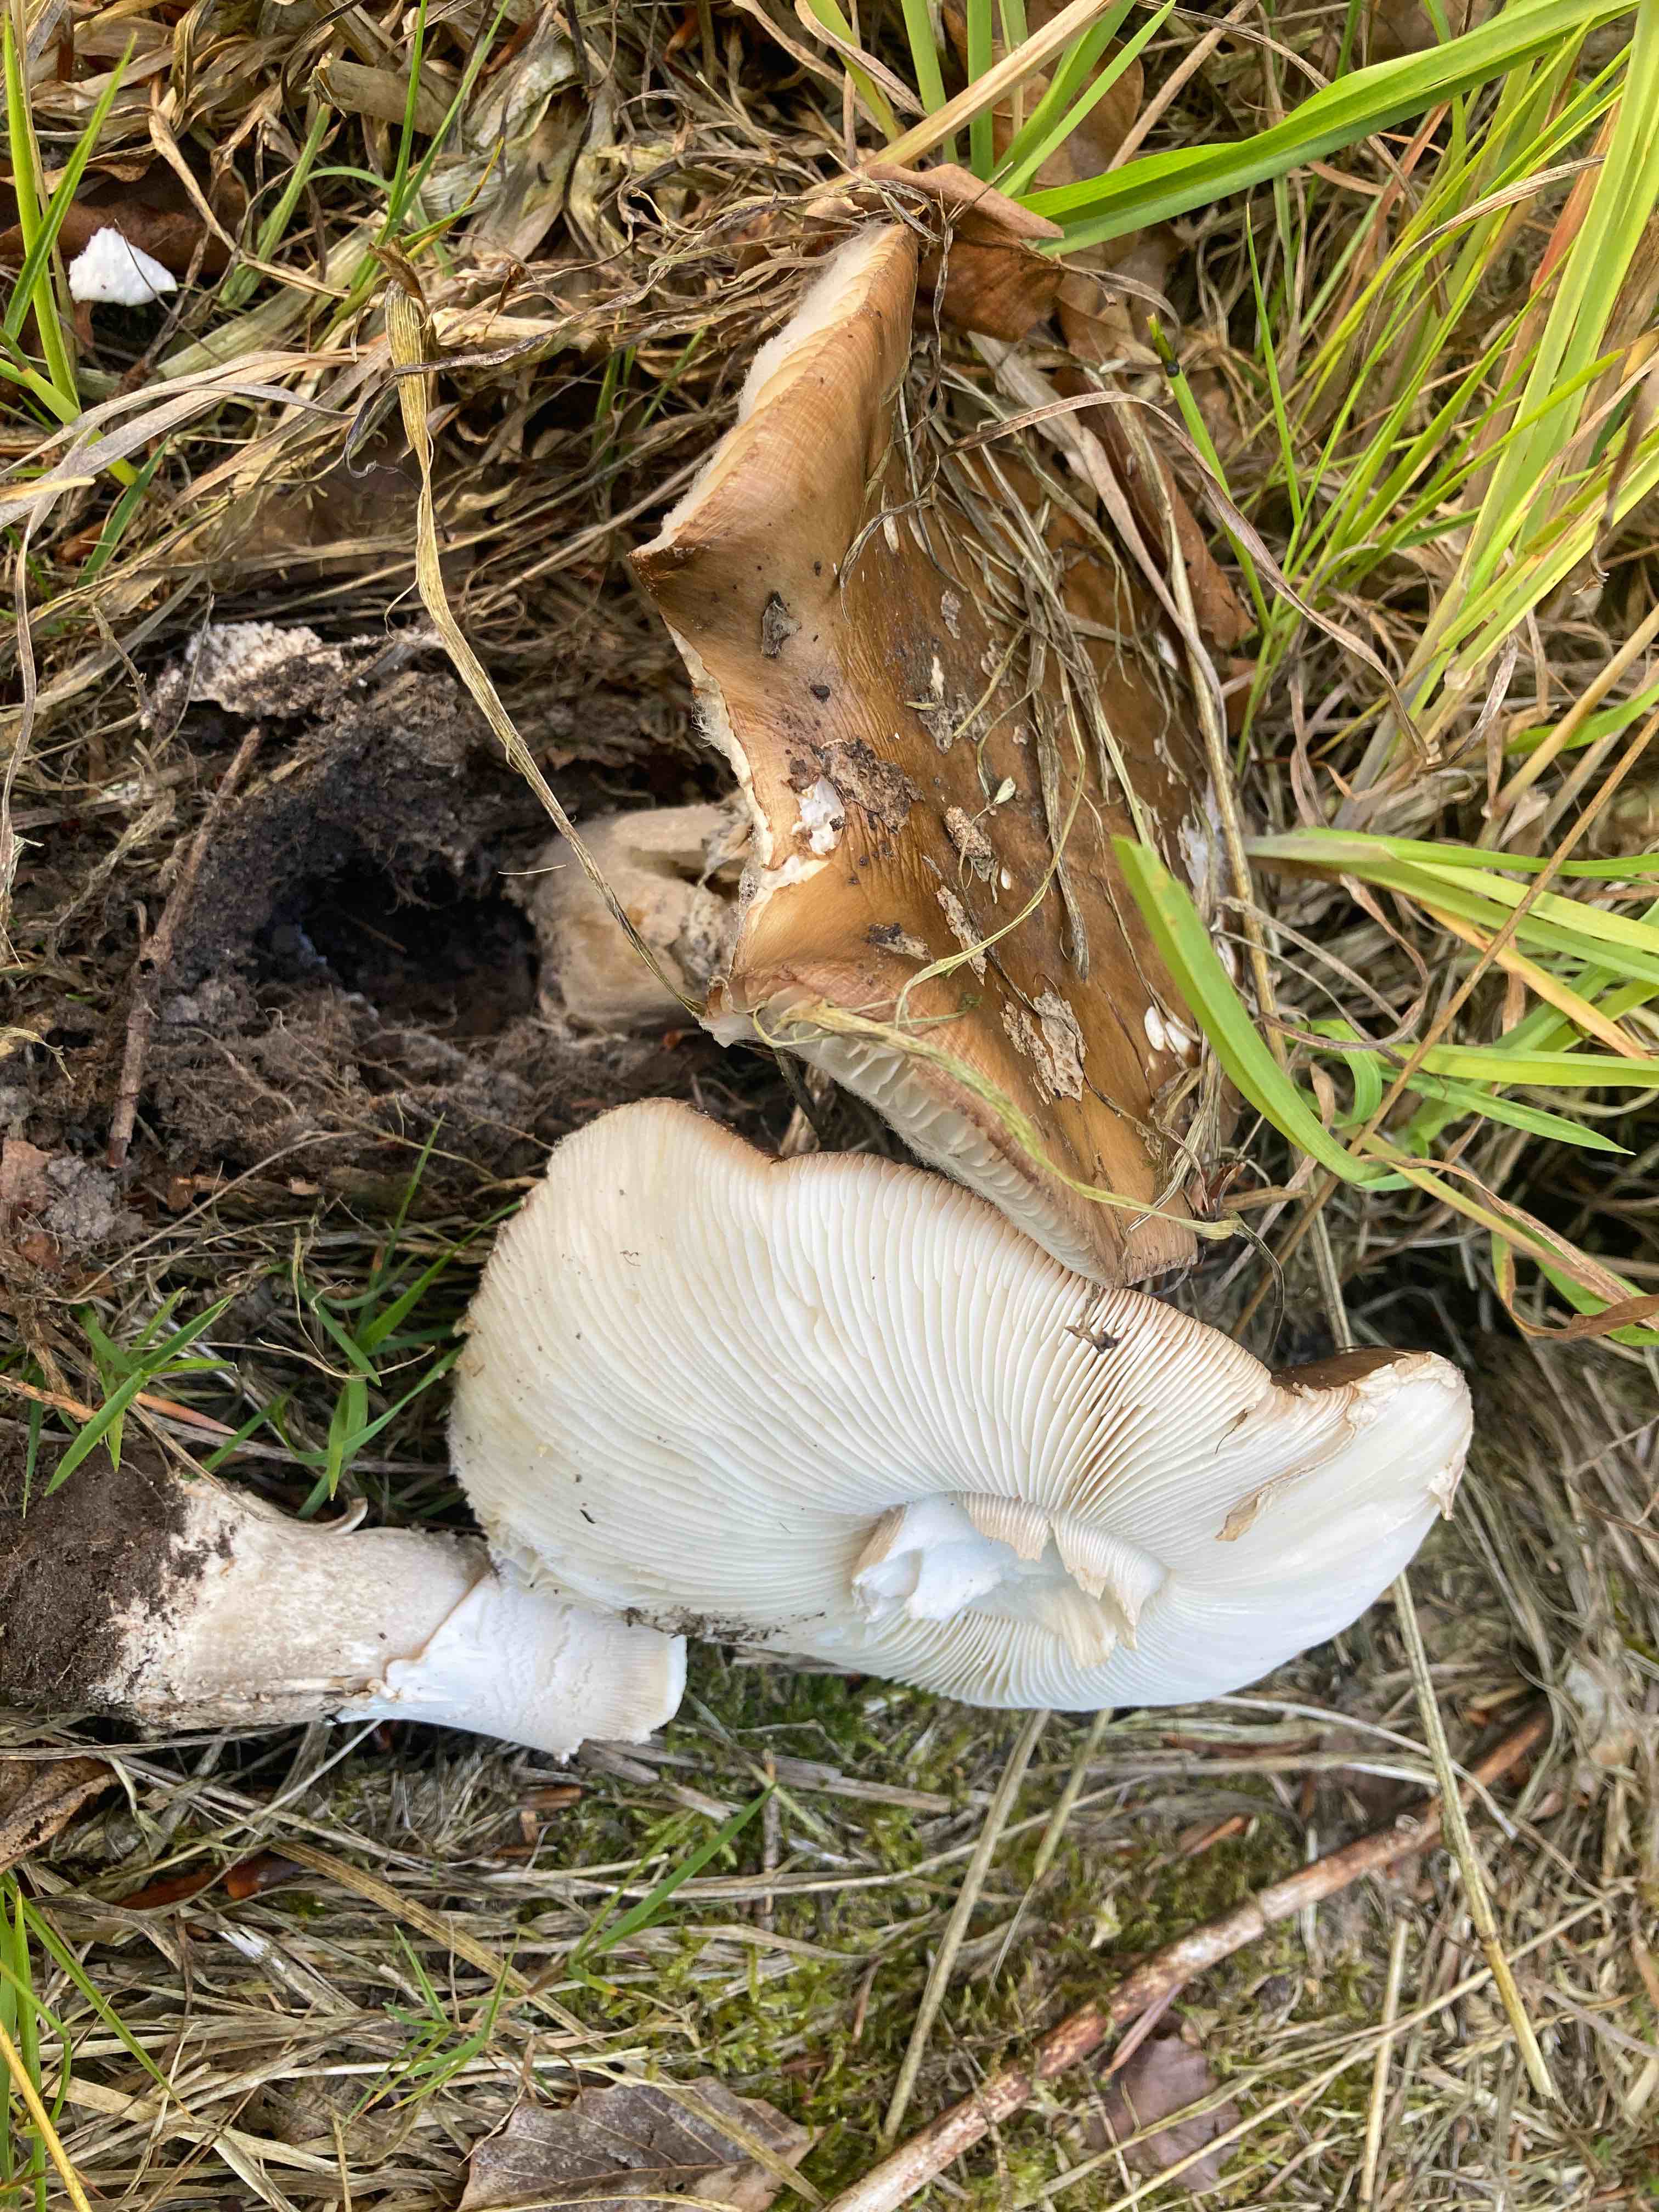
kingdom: Fungi
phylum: Basidiomycota
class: Agaricomycetes
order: Agaricales
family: Amanitaceae
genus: Amanita
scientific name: Amanita
